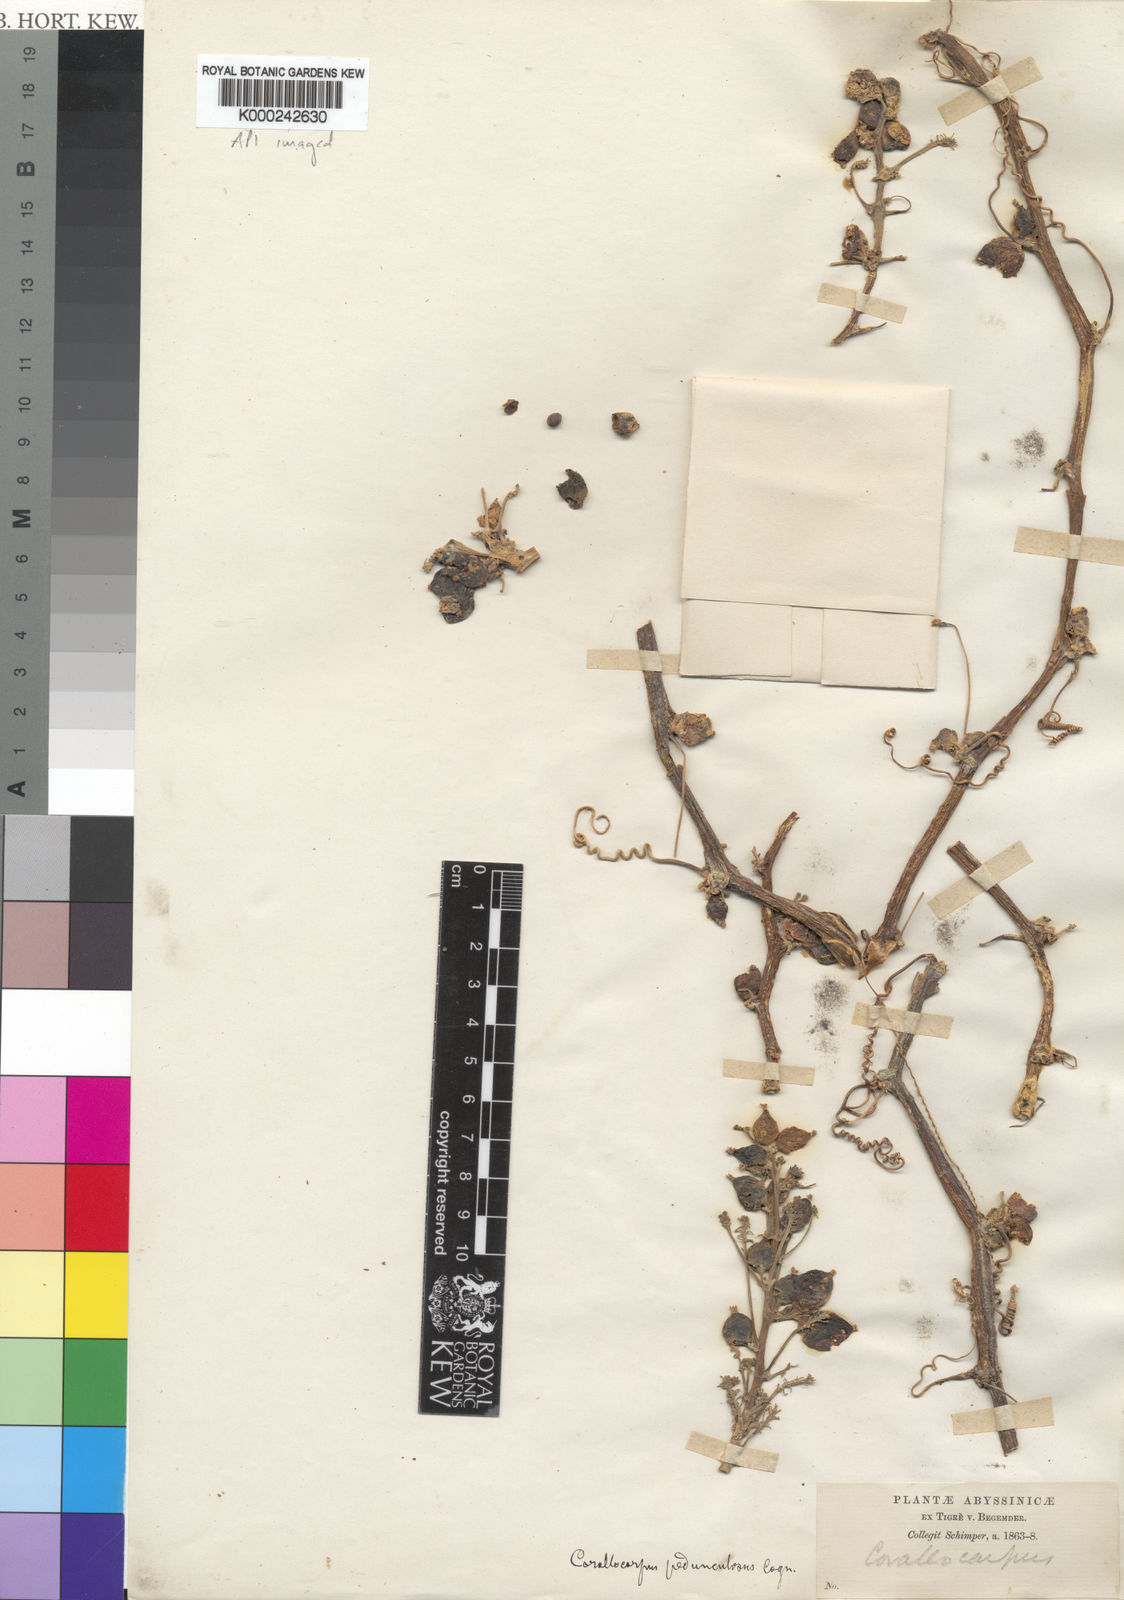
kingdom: Plantae
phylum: Tracheophyta
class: Magnoliopsida
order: Cucurbitales
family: Cucurbitaceae
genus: Corallocarpus
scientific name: Corallocarpus schimperi
